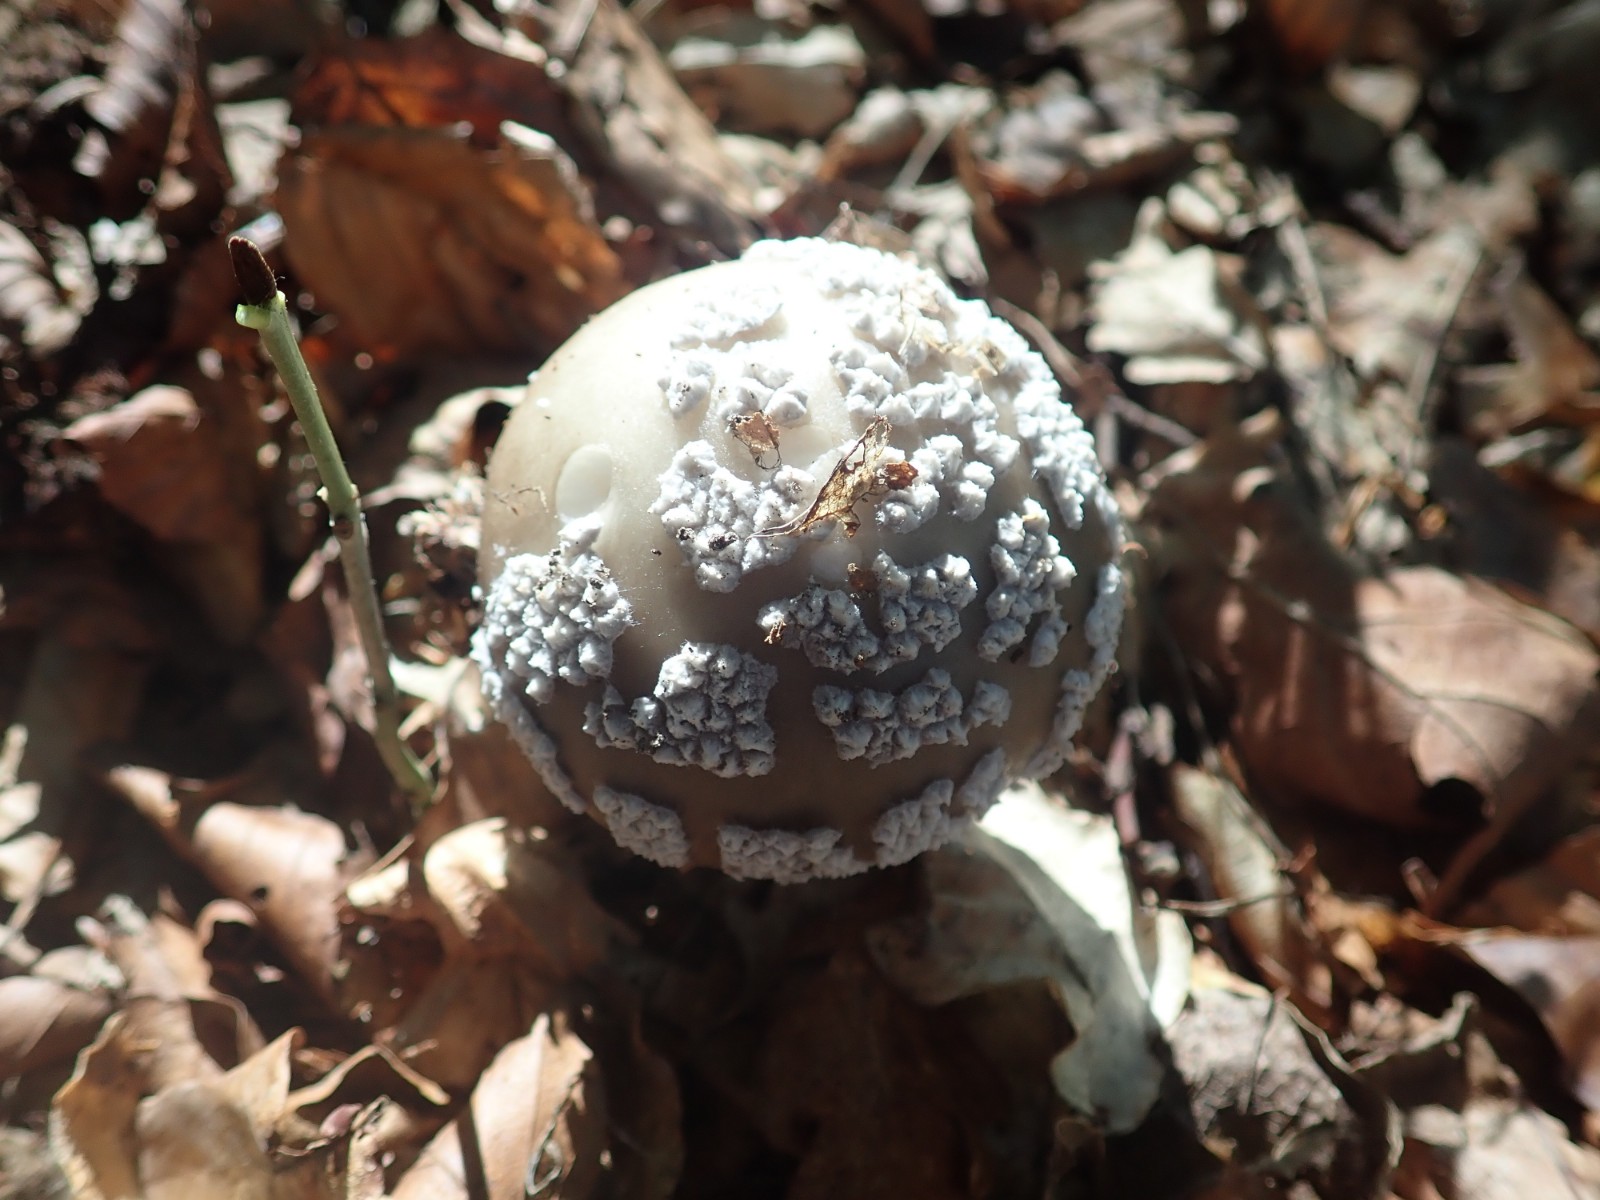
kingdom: Fungi
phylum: Basidiomycota
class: Agaricomycetes
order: Agaricales
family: Amanitaceae
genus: Amanita
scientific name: Amanita
